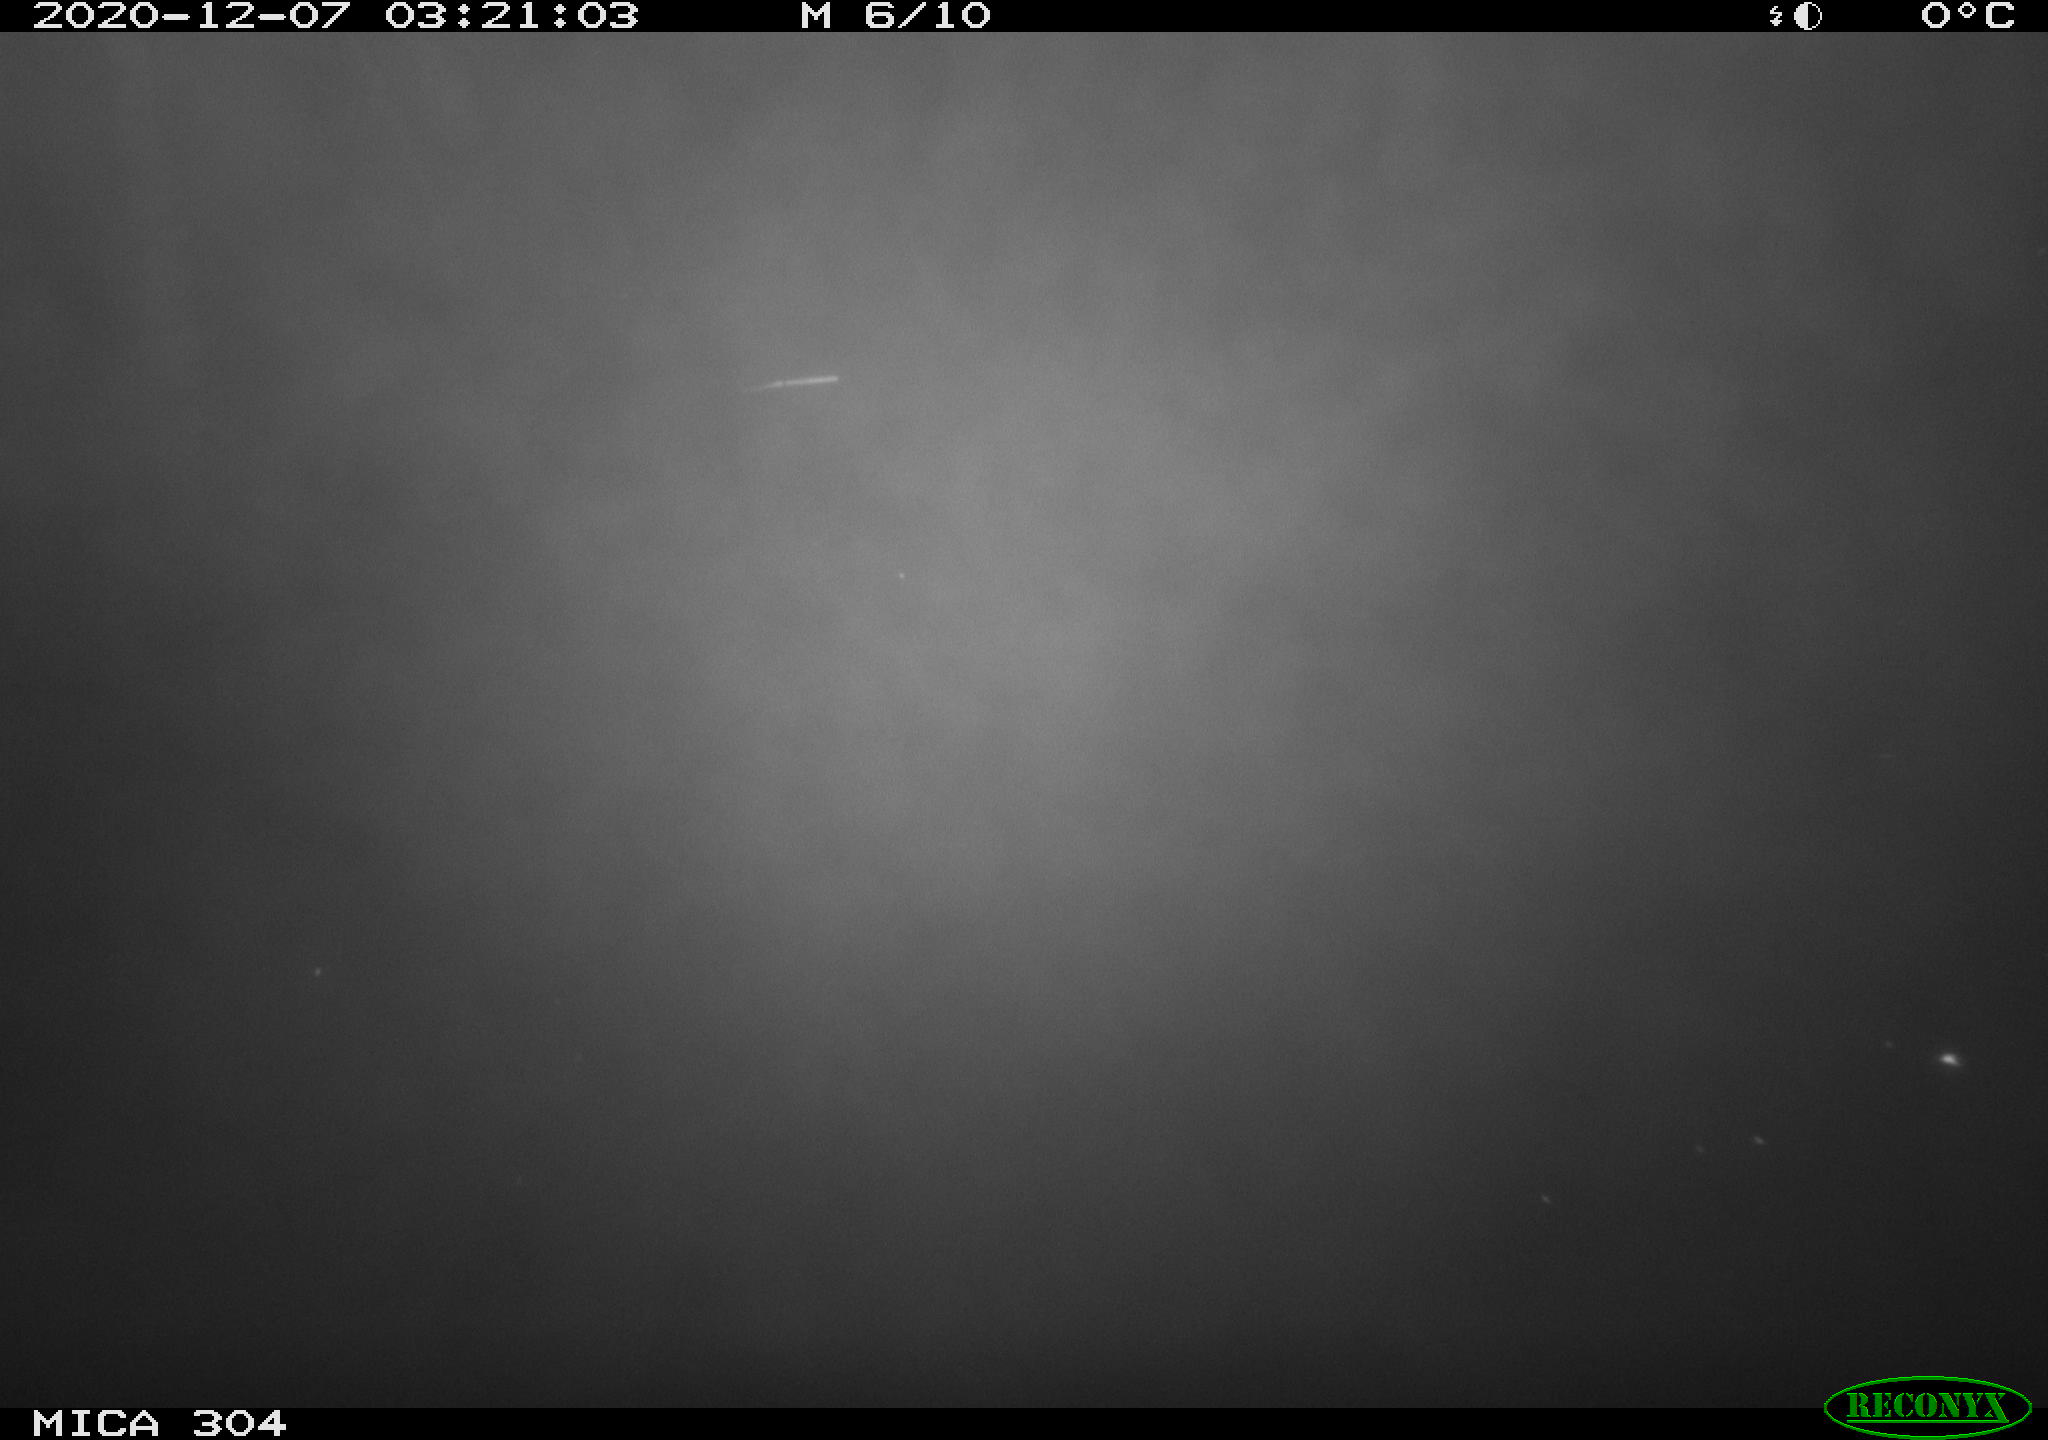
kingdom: Animalia
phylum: Chordata
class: Mammalia
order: Rodentia
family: Muridae
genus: Rattus
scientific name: Rattus norvegicus
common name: Brown rat
